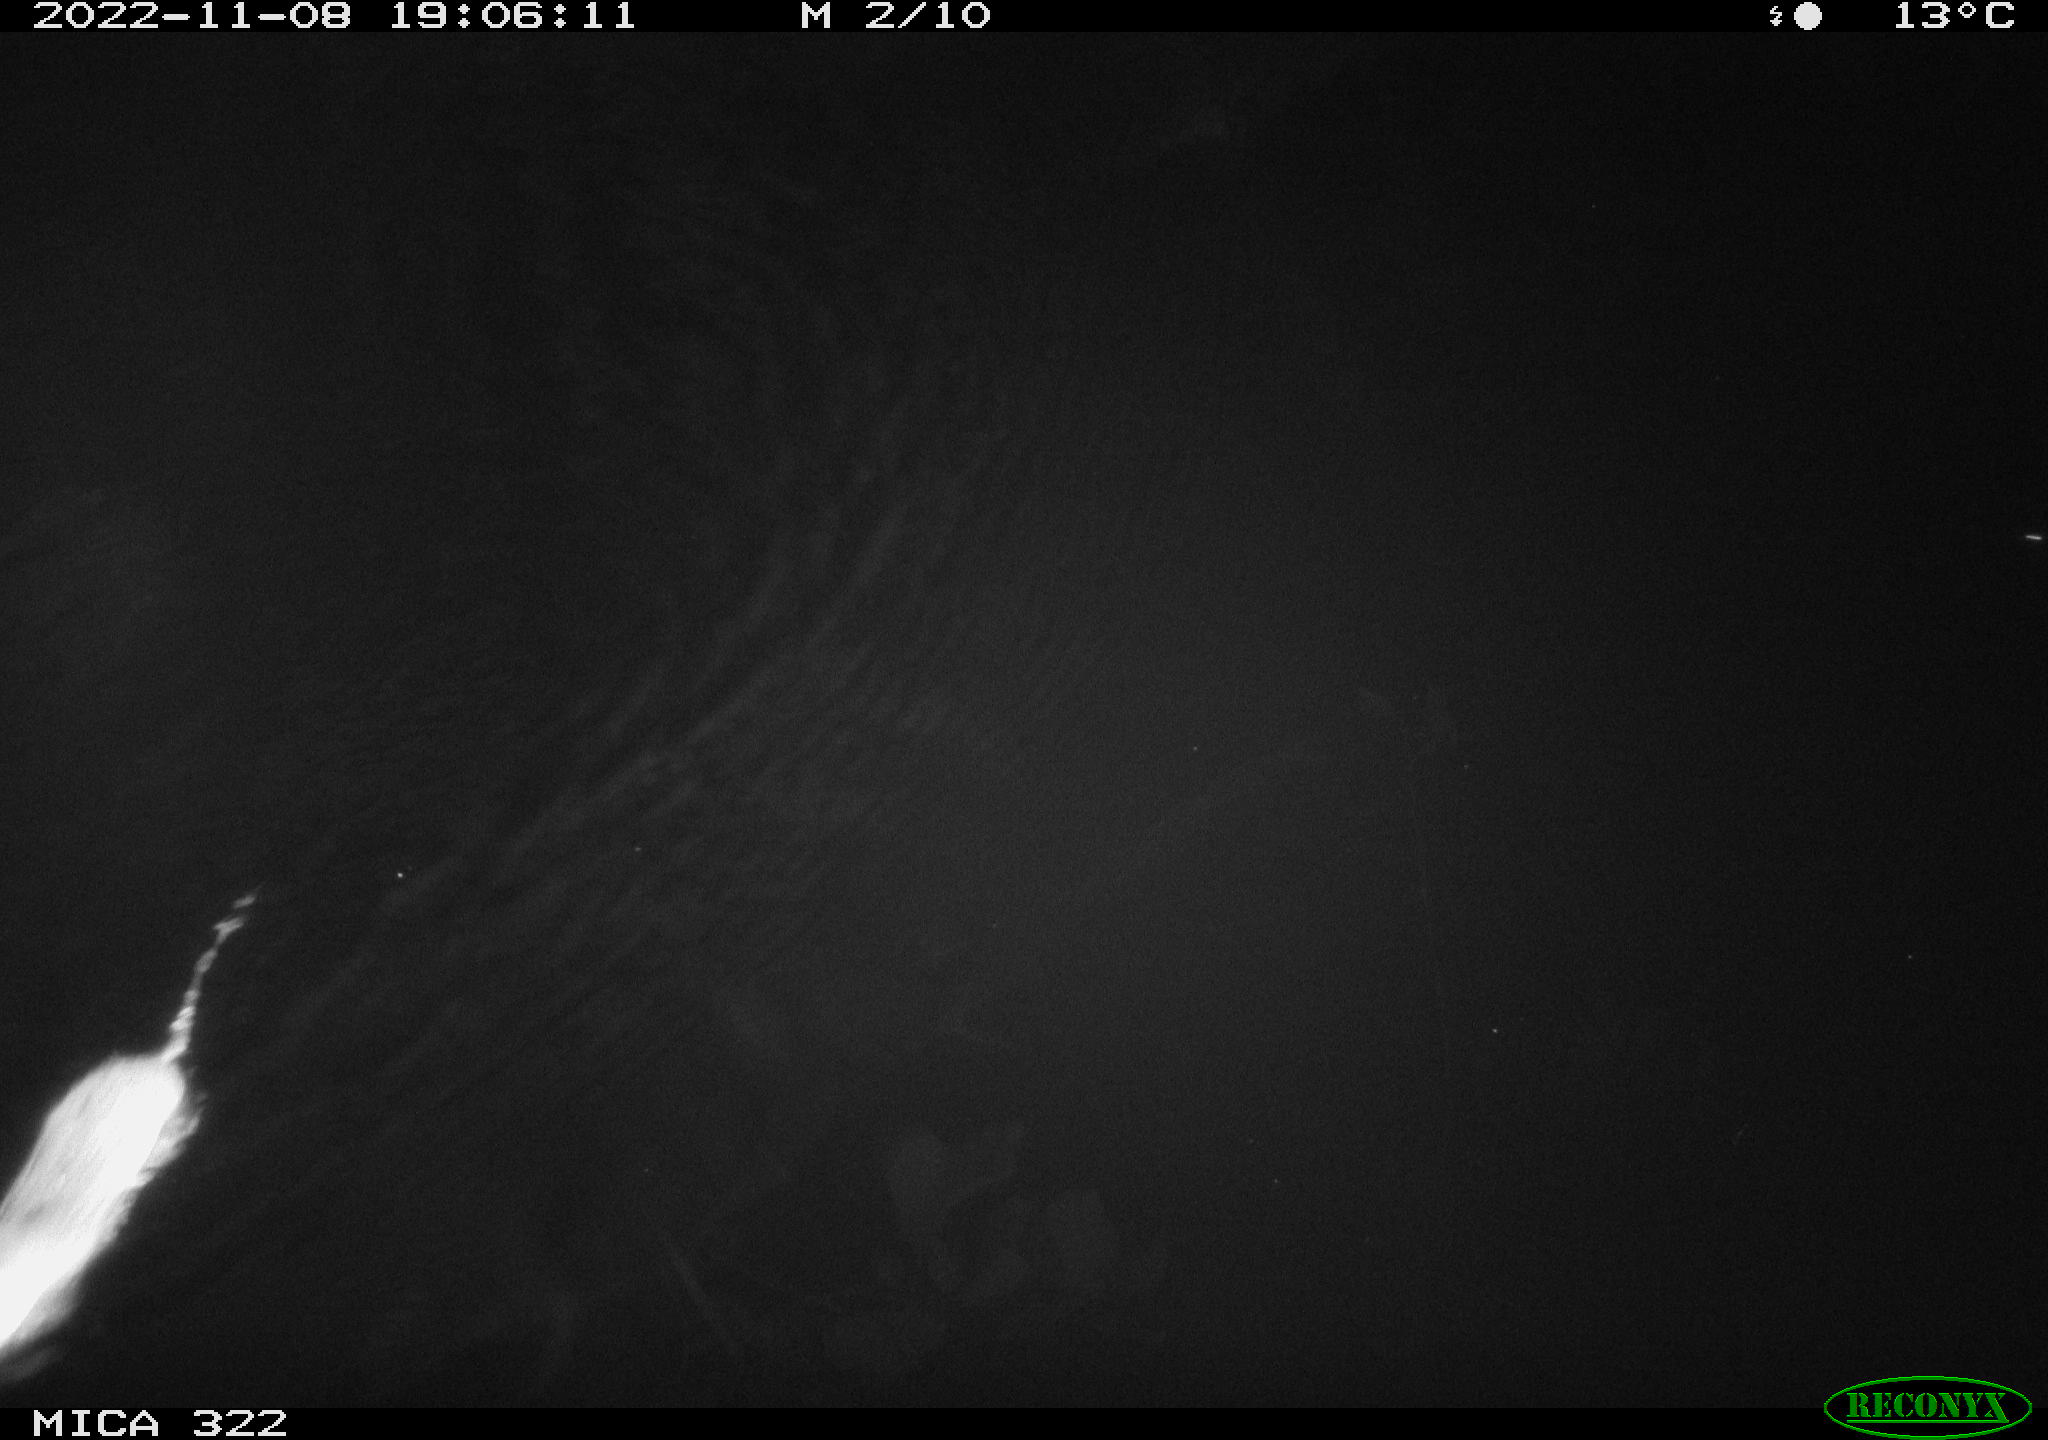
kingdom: Animalia
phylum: Chordata
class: Mammalia
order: Rodentia
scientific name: Rodentia
